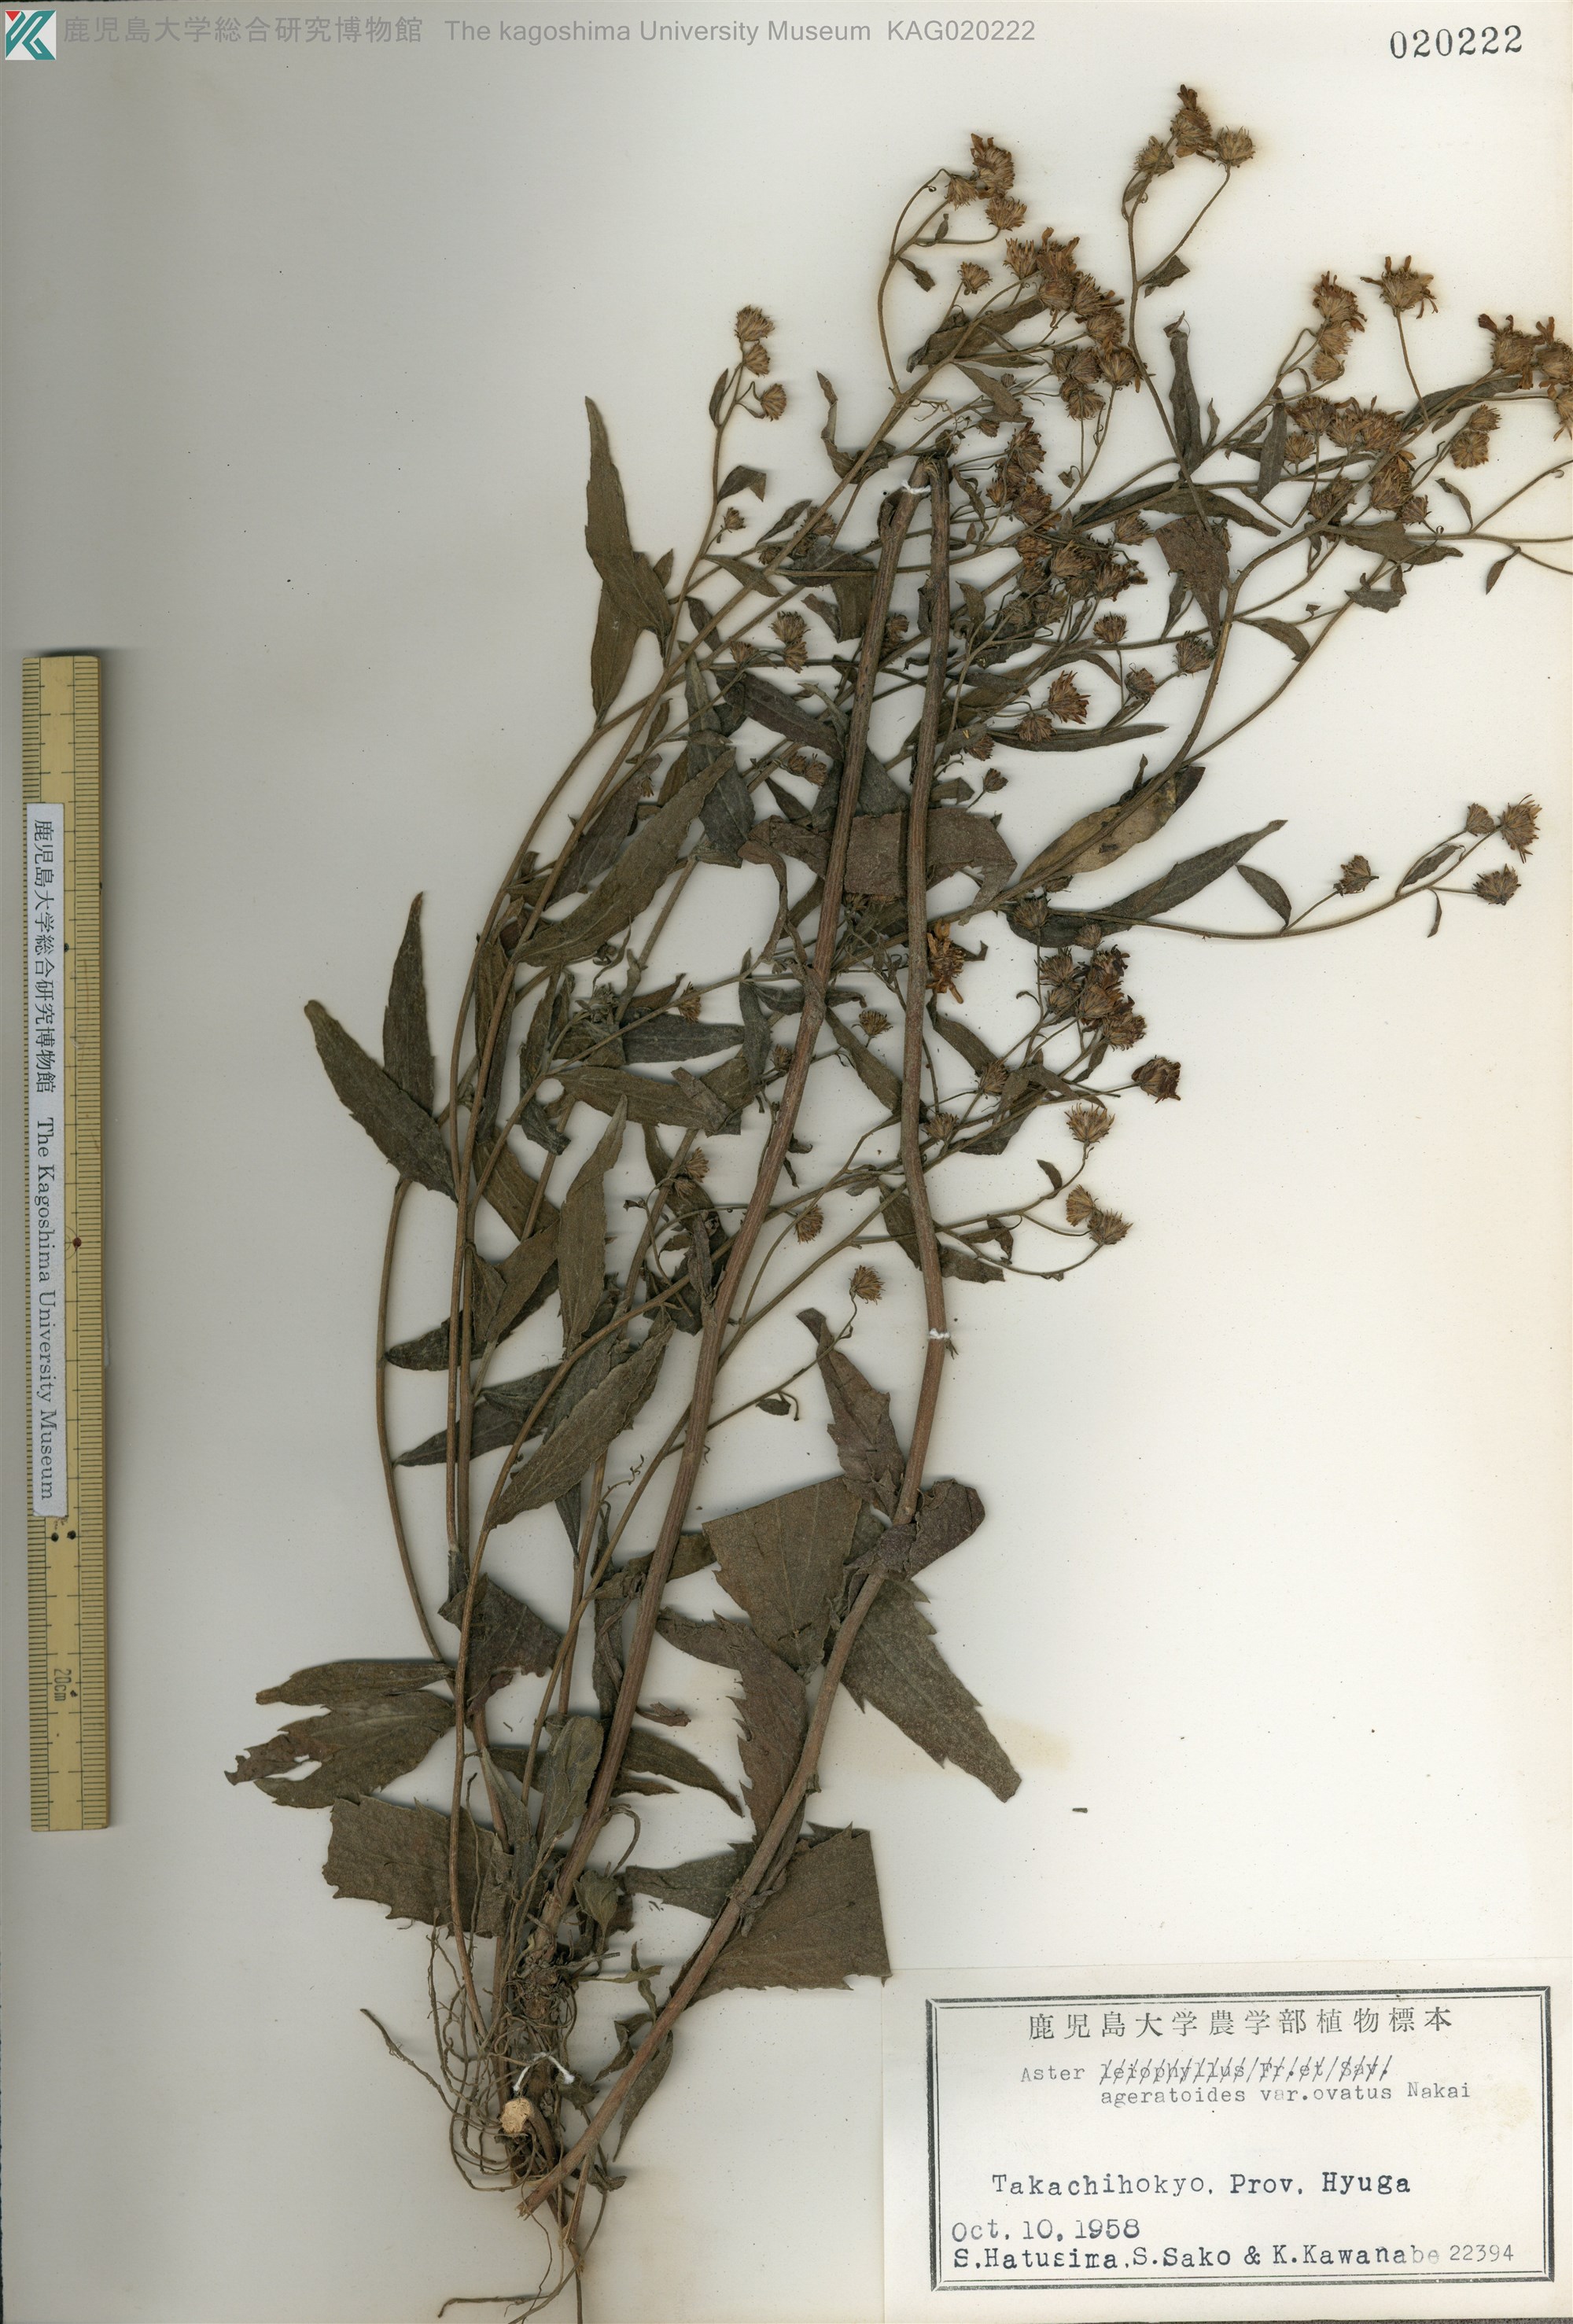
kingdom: Plantae
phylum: Tracheophyta
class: Magnoliopsida
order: Asterales
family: Asteraceae
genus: Aster
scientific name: Aster microcephalus
